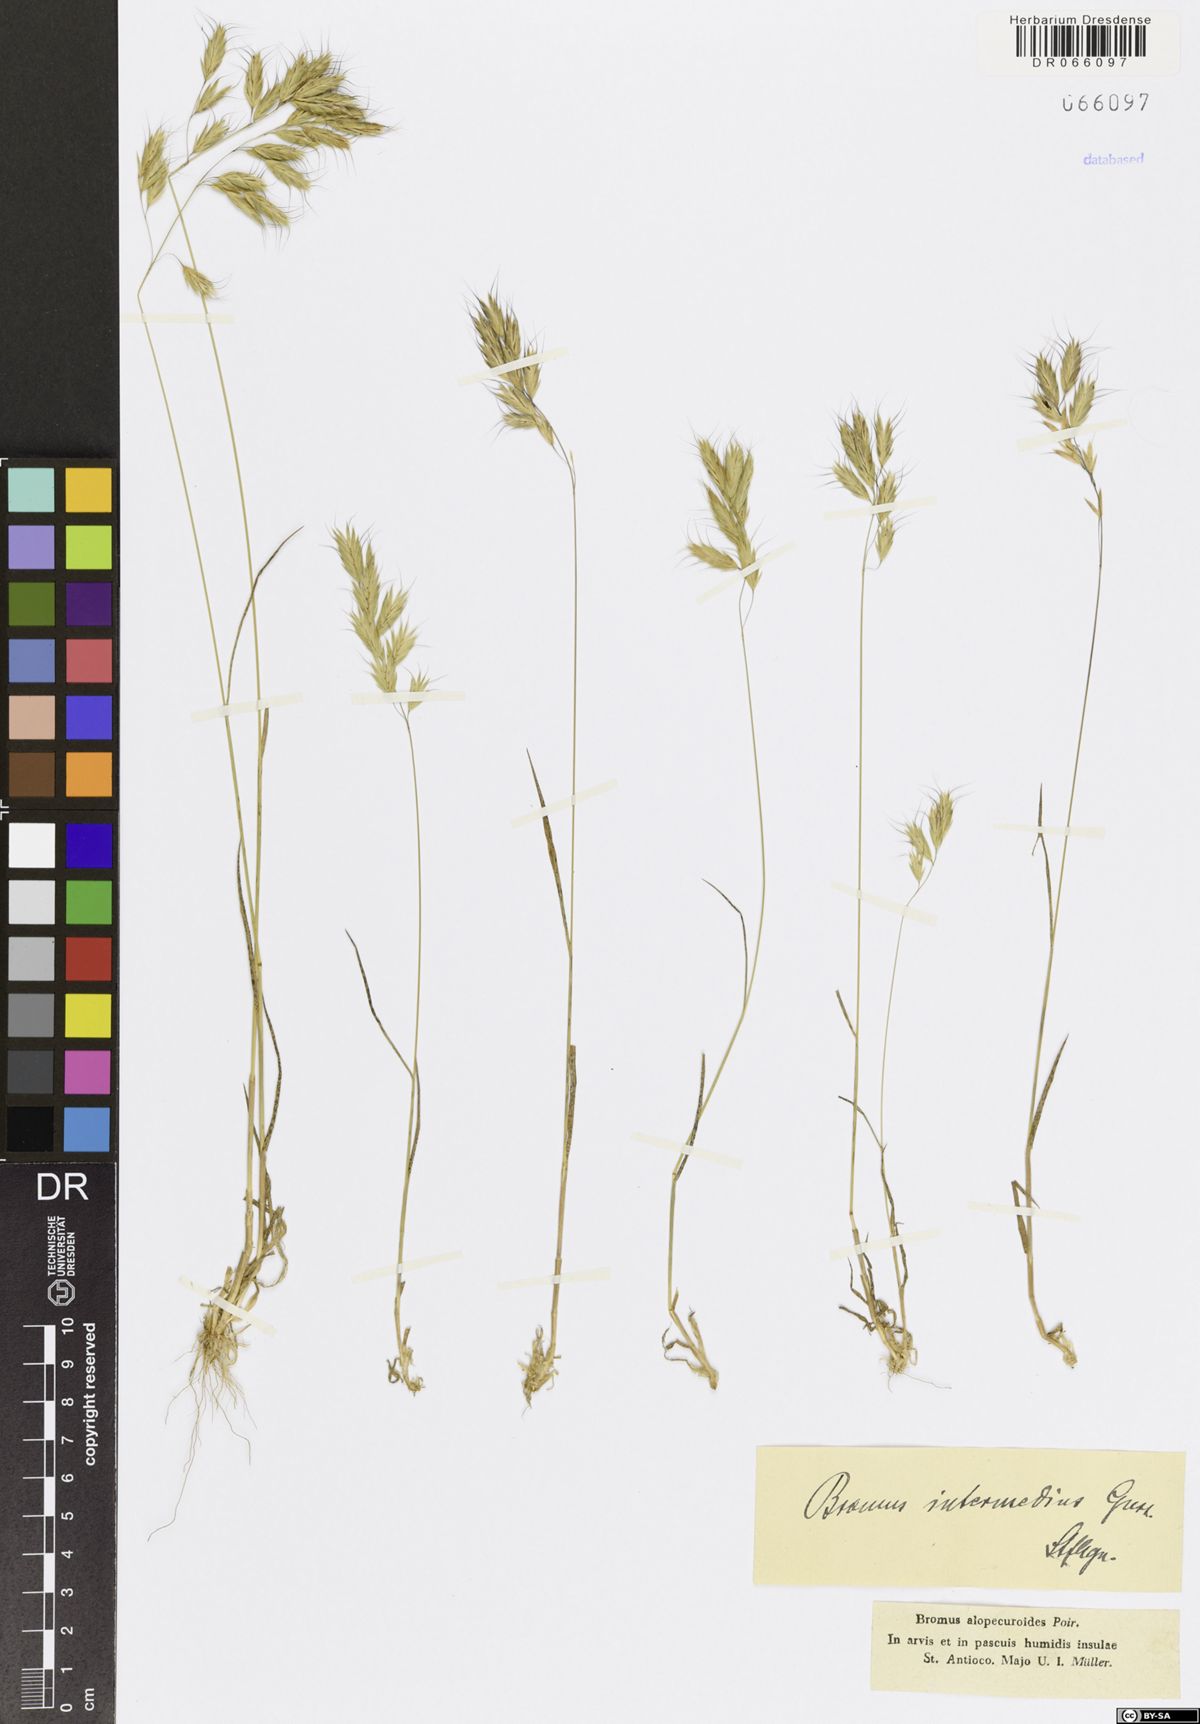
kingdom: Plantae
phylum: Tracheophyta
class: Liliopsida
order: Poales
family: Poaceae
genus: Bromus
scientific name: Bromus intermedius
